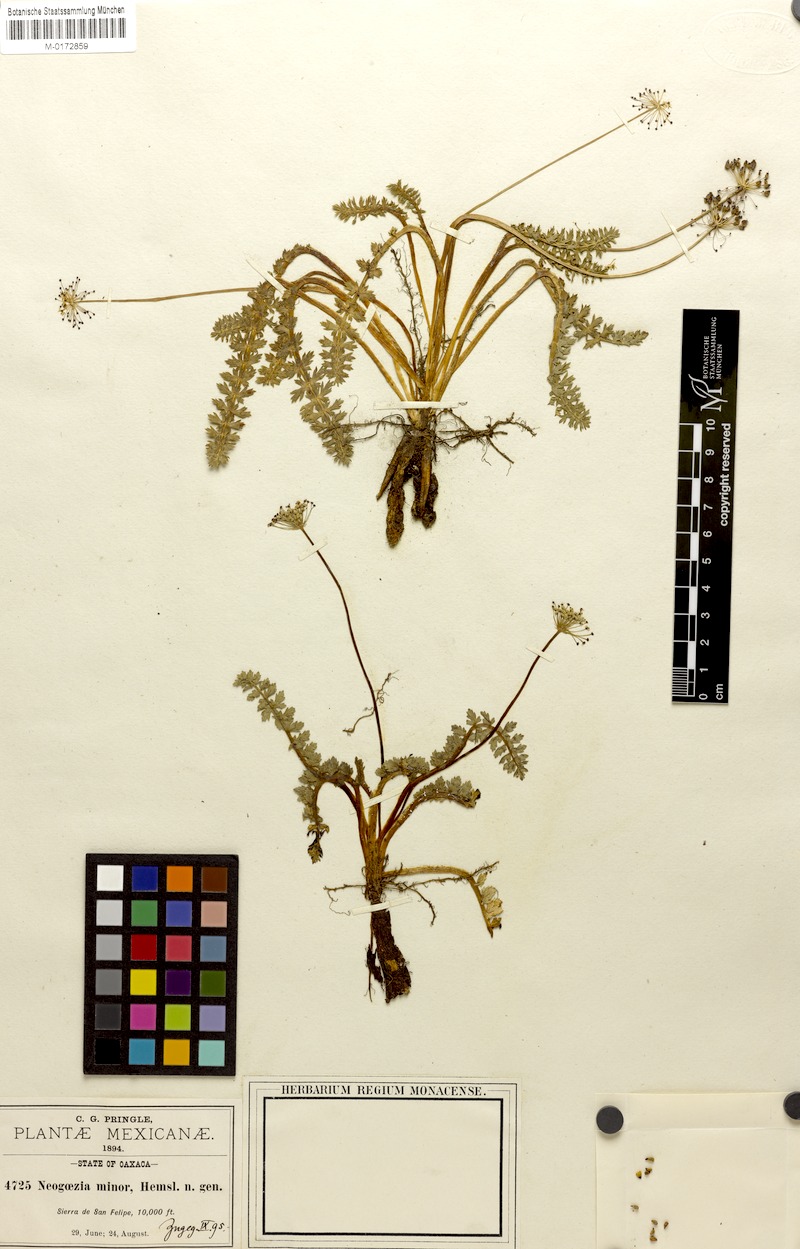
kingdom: Plantae
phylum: Tracheophyta
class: Magnoliopsida
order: Apiales
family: Apiaceae
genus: Neogoezia
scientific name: Neogoezia minor
